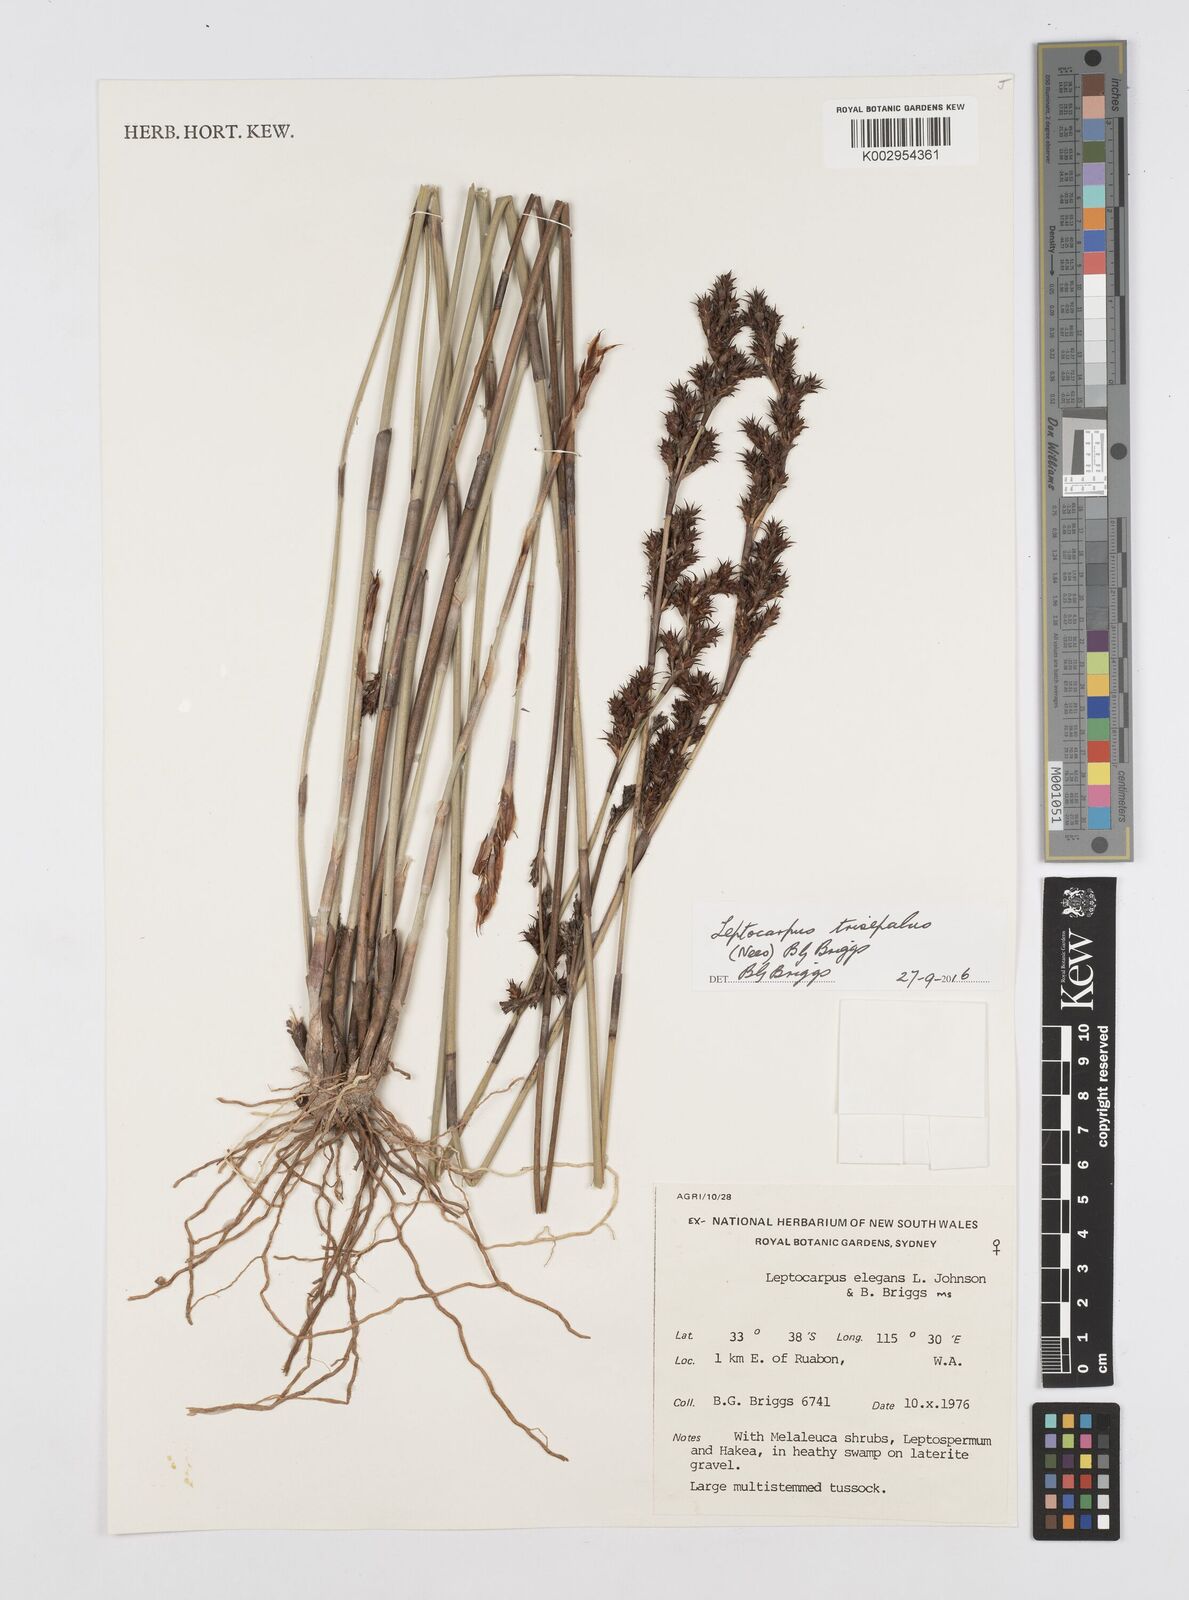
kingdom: Plantae
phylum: Tracheophyta
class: Liliopsida
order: Poales
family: Restionaceae
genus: Leptocarpus
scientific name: Leptocarpus trisepalus
